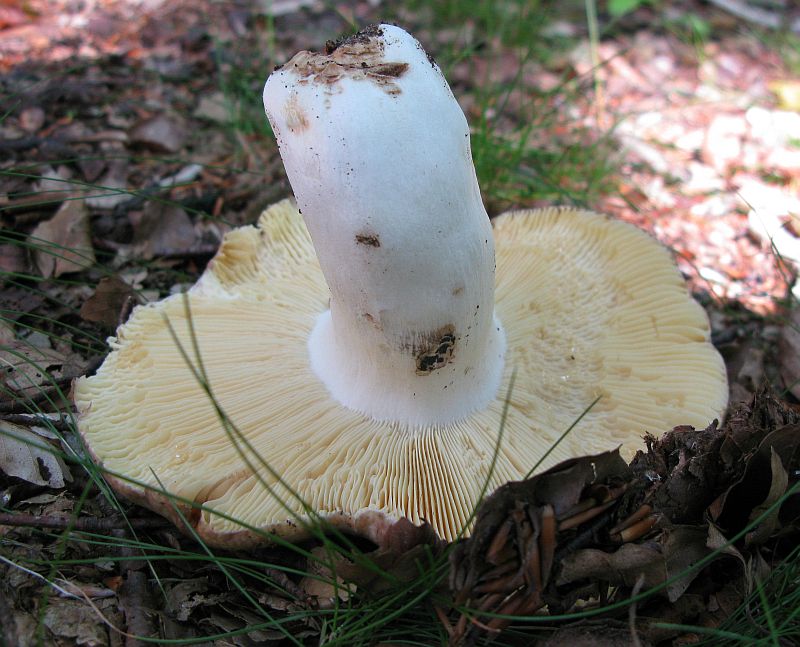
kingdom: Fungi
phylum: Basidiomycota
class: Agaricomycetes
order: Russulales
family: Russulaceae
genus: Russula
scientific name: Russula romellii
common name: romells skørhat
